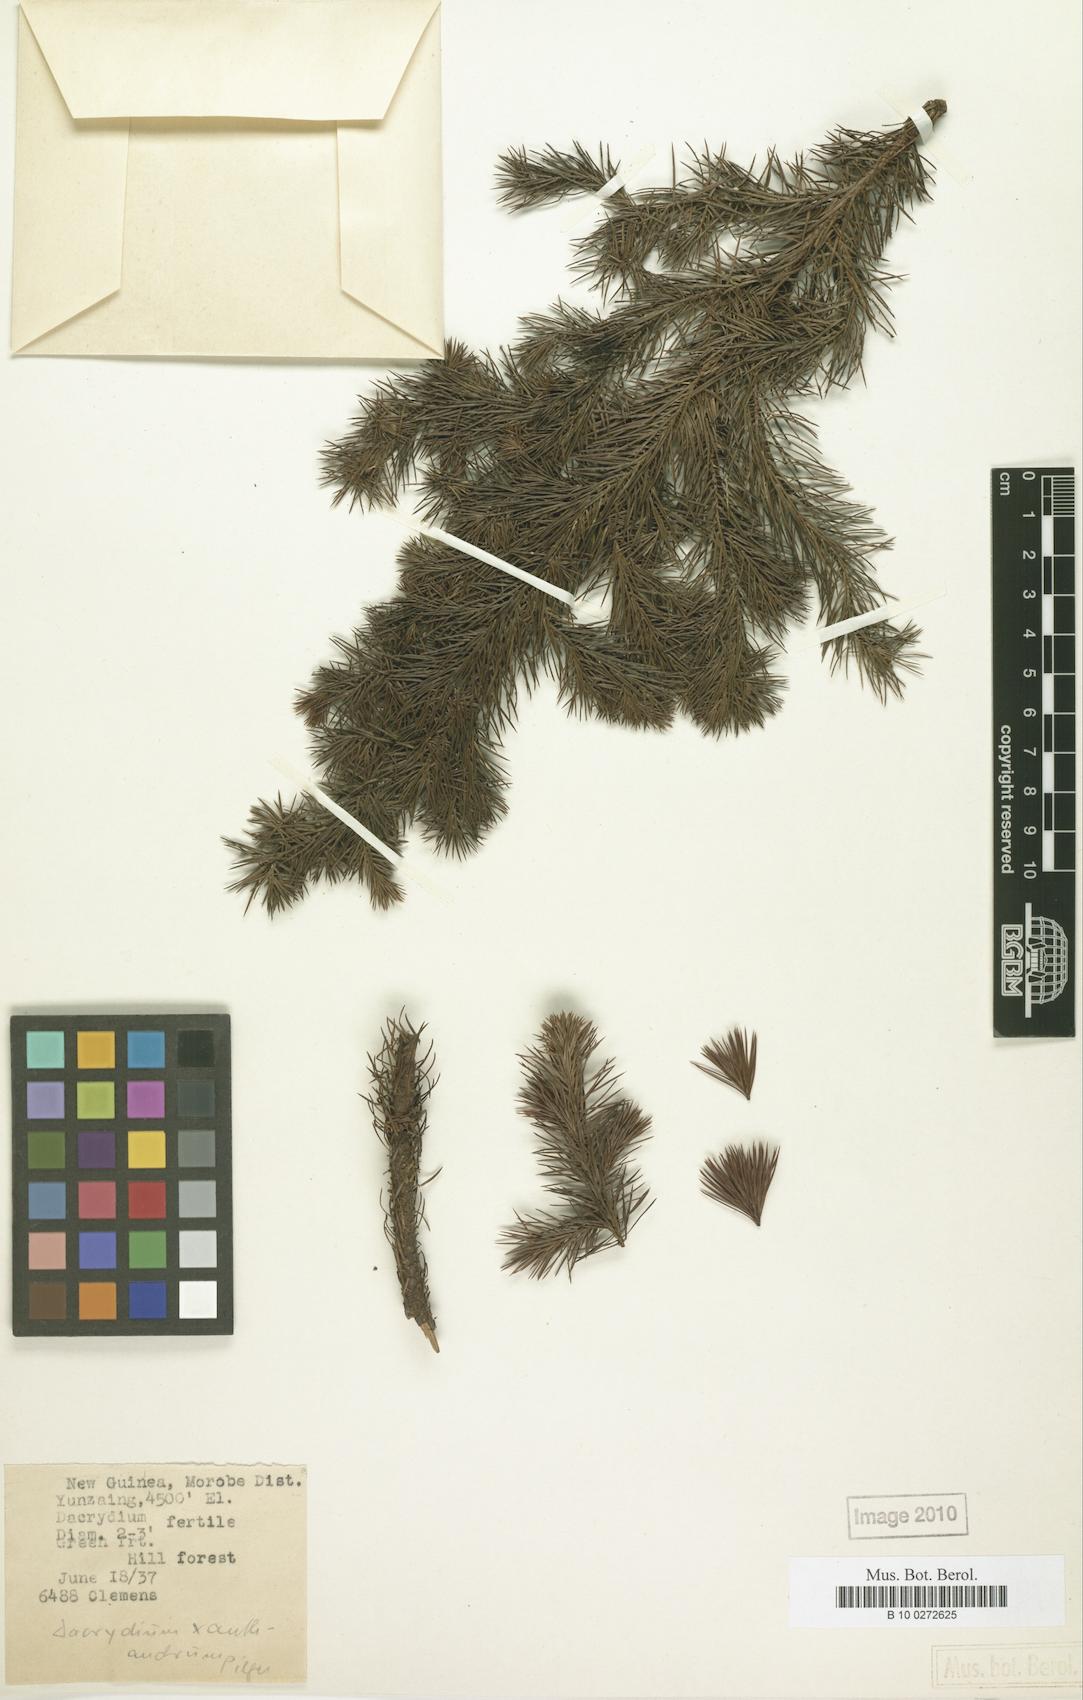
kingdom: Plantae
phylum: Tracheophyta
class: Pinopsida
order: Pinales
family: Podocarpaceae
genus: Dacrydium
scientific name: Dacrydium xanthandrum
